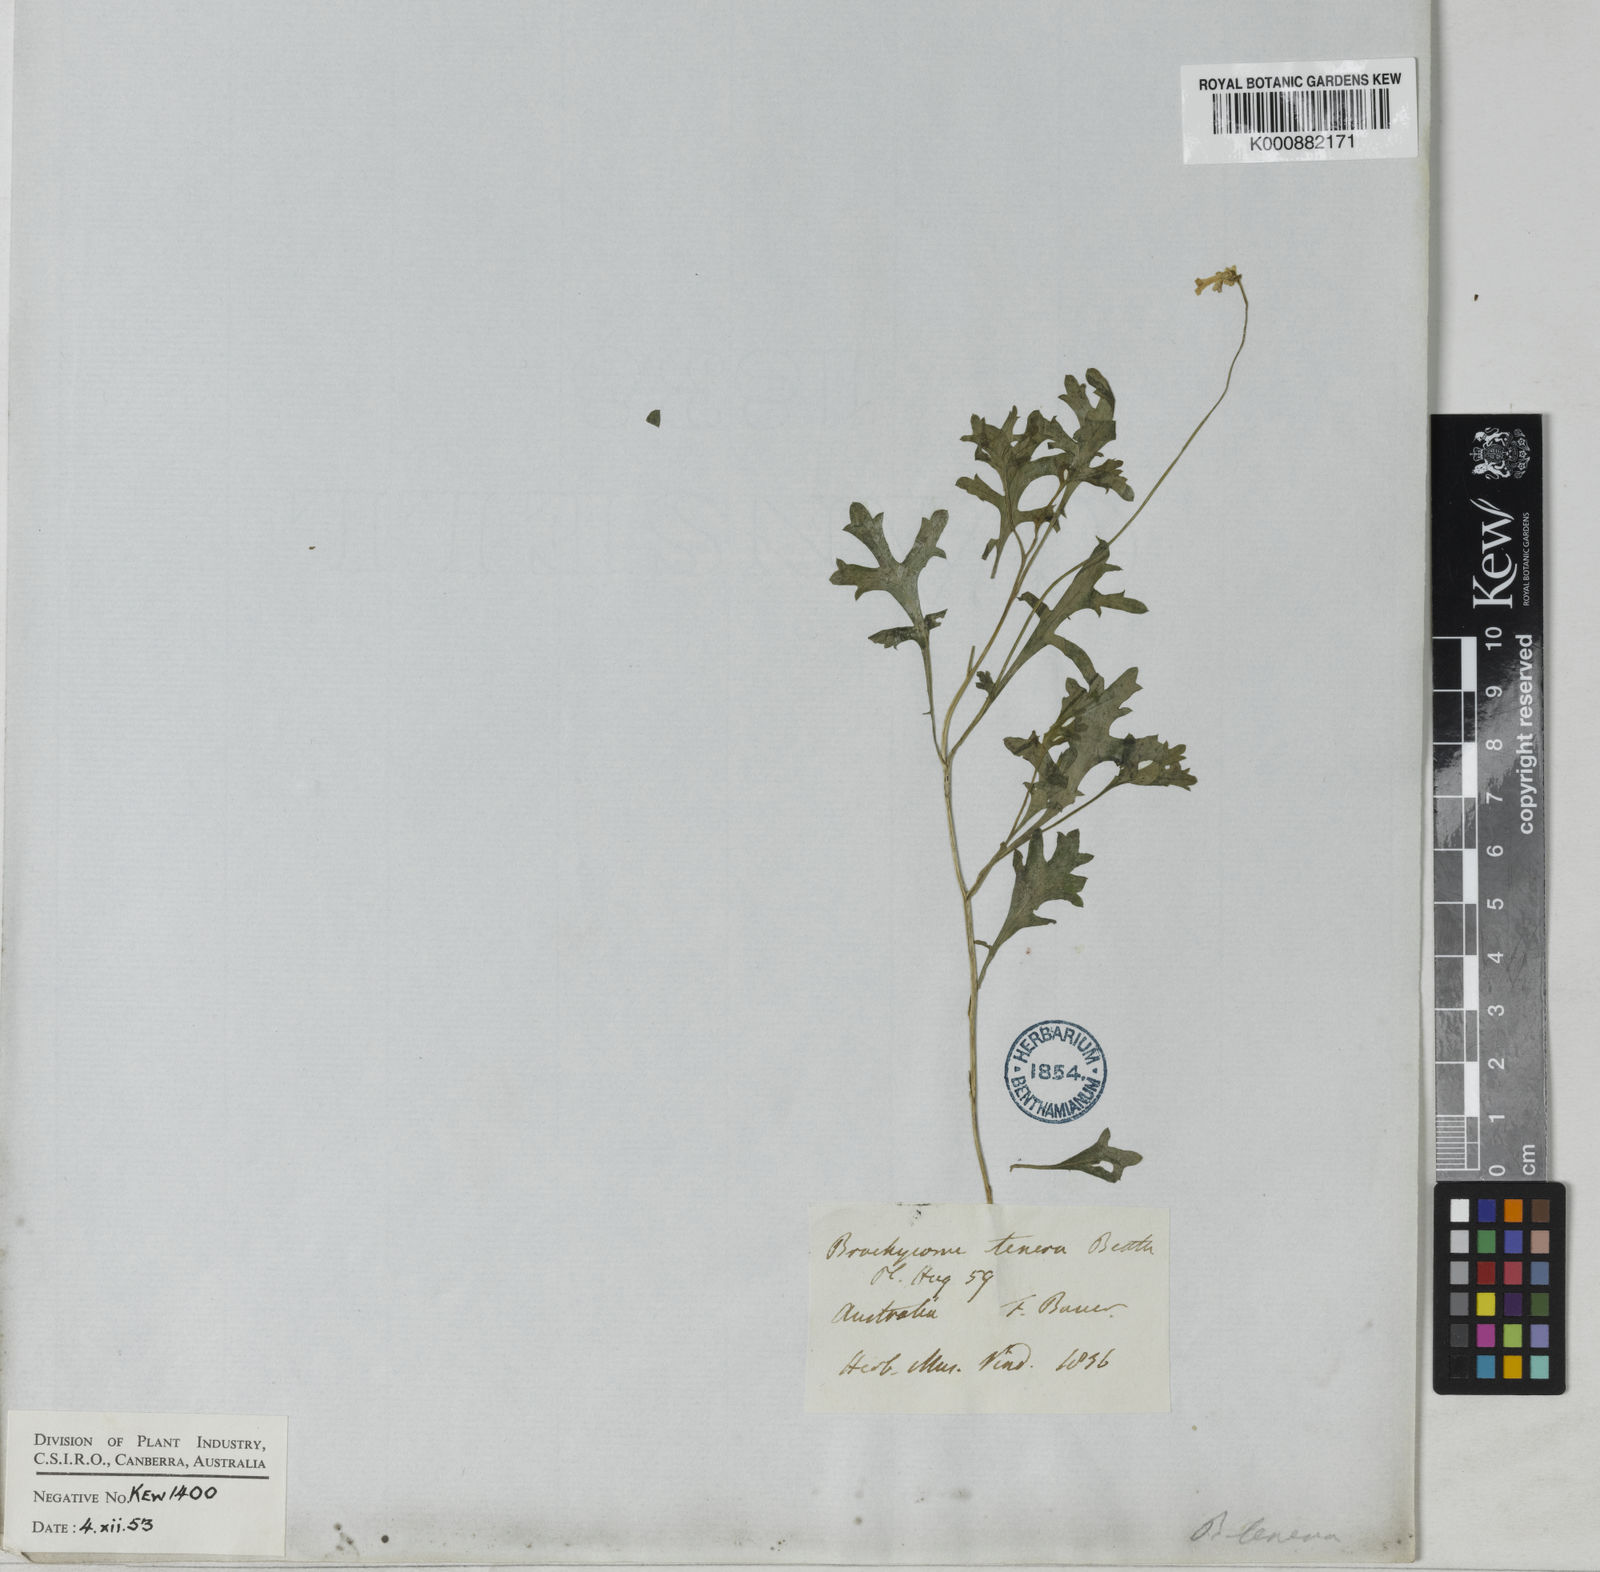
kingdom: Plantae
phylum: Tracheophyta
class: Magnoliopsida
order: Asterales
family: Asteraceae
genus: Brachyscome
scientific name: Brachyscome multifida
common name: Cut-leaf daisy
